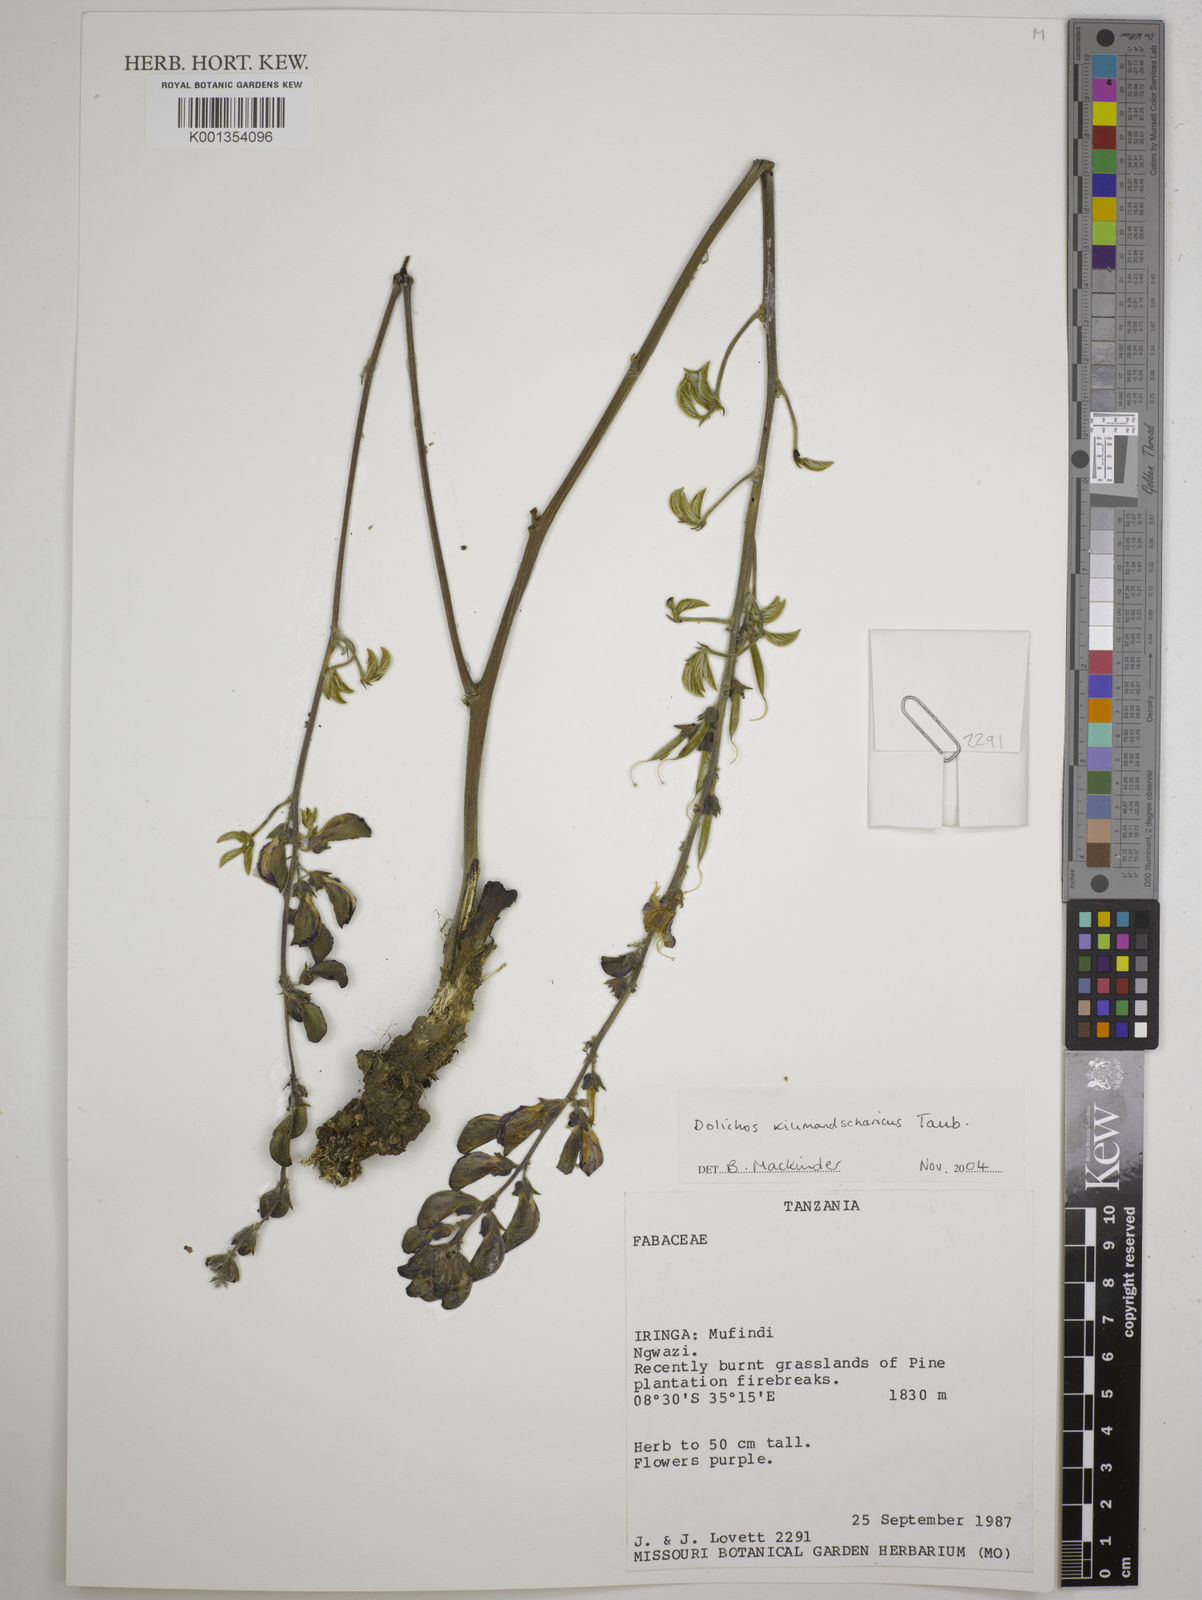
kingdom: Plantae
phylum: Tracheophyta
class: Magnoliopsida
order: Fabales
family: Fabaceae
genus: Dolichos
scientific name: Dolichos kilimandscharicus
